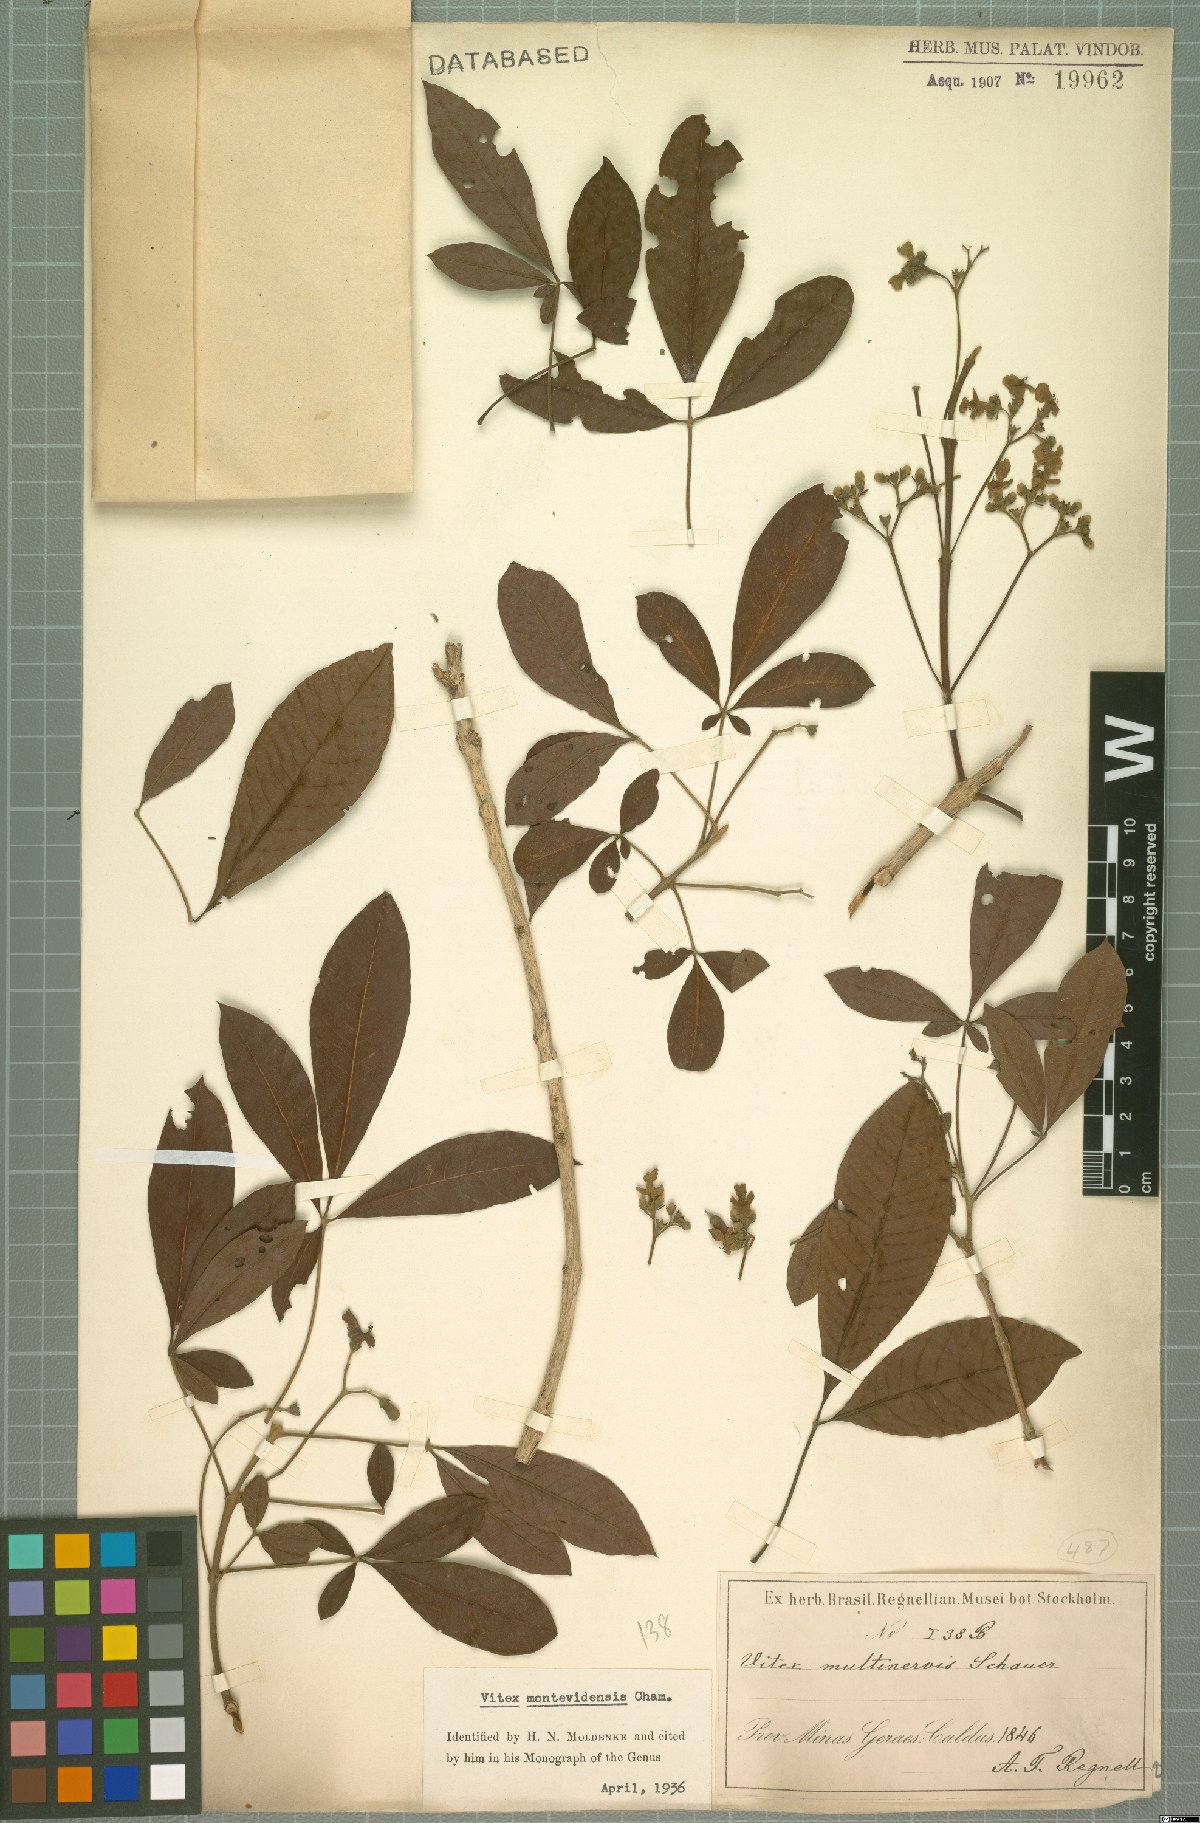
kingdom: Plantae
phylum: Tracheophyta
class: Magnoliopsida
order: Lamiales
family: Lamiaceae
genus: Vitex
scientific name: Vitex megapotamica
